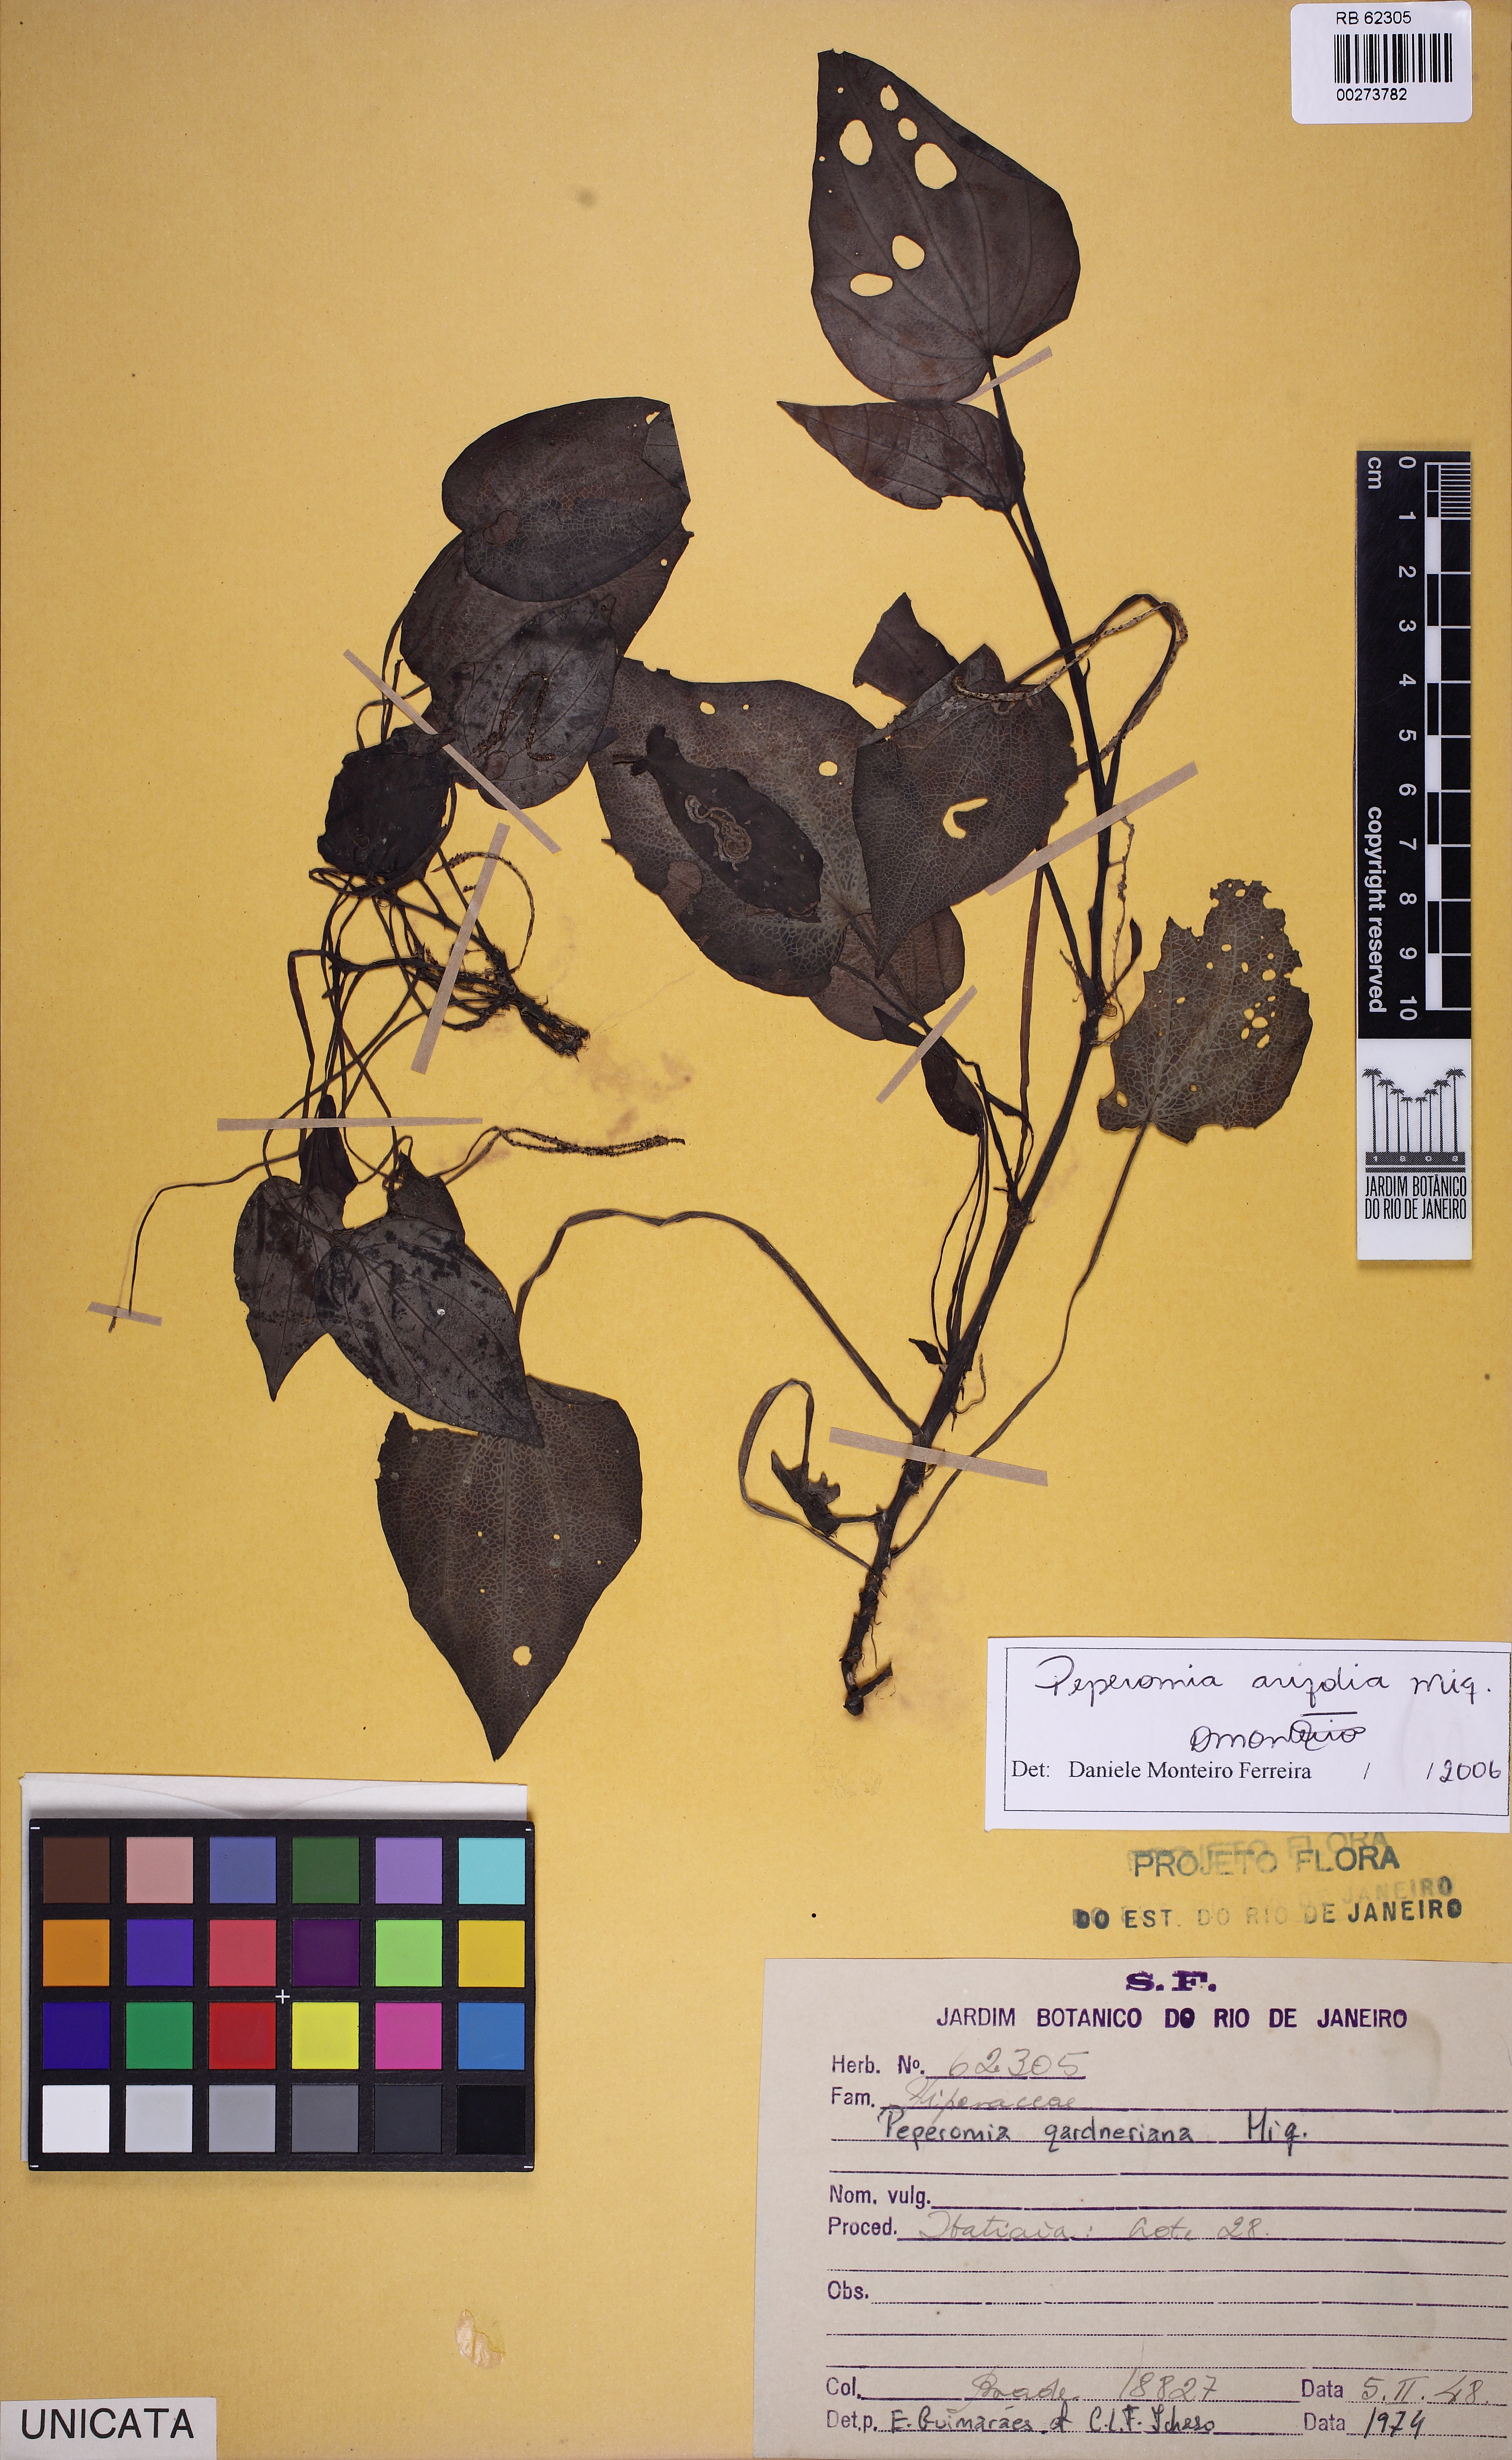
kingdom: Plantae
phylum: Tracheophyta
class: Magnoliopsida
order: Piperales
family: Piperaceae
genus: Peperomia
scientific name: Peperomia arifolia
